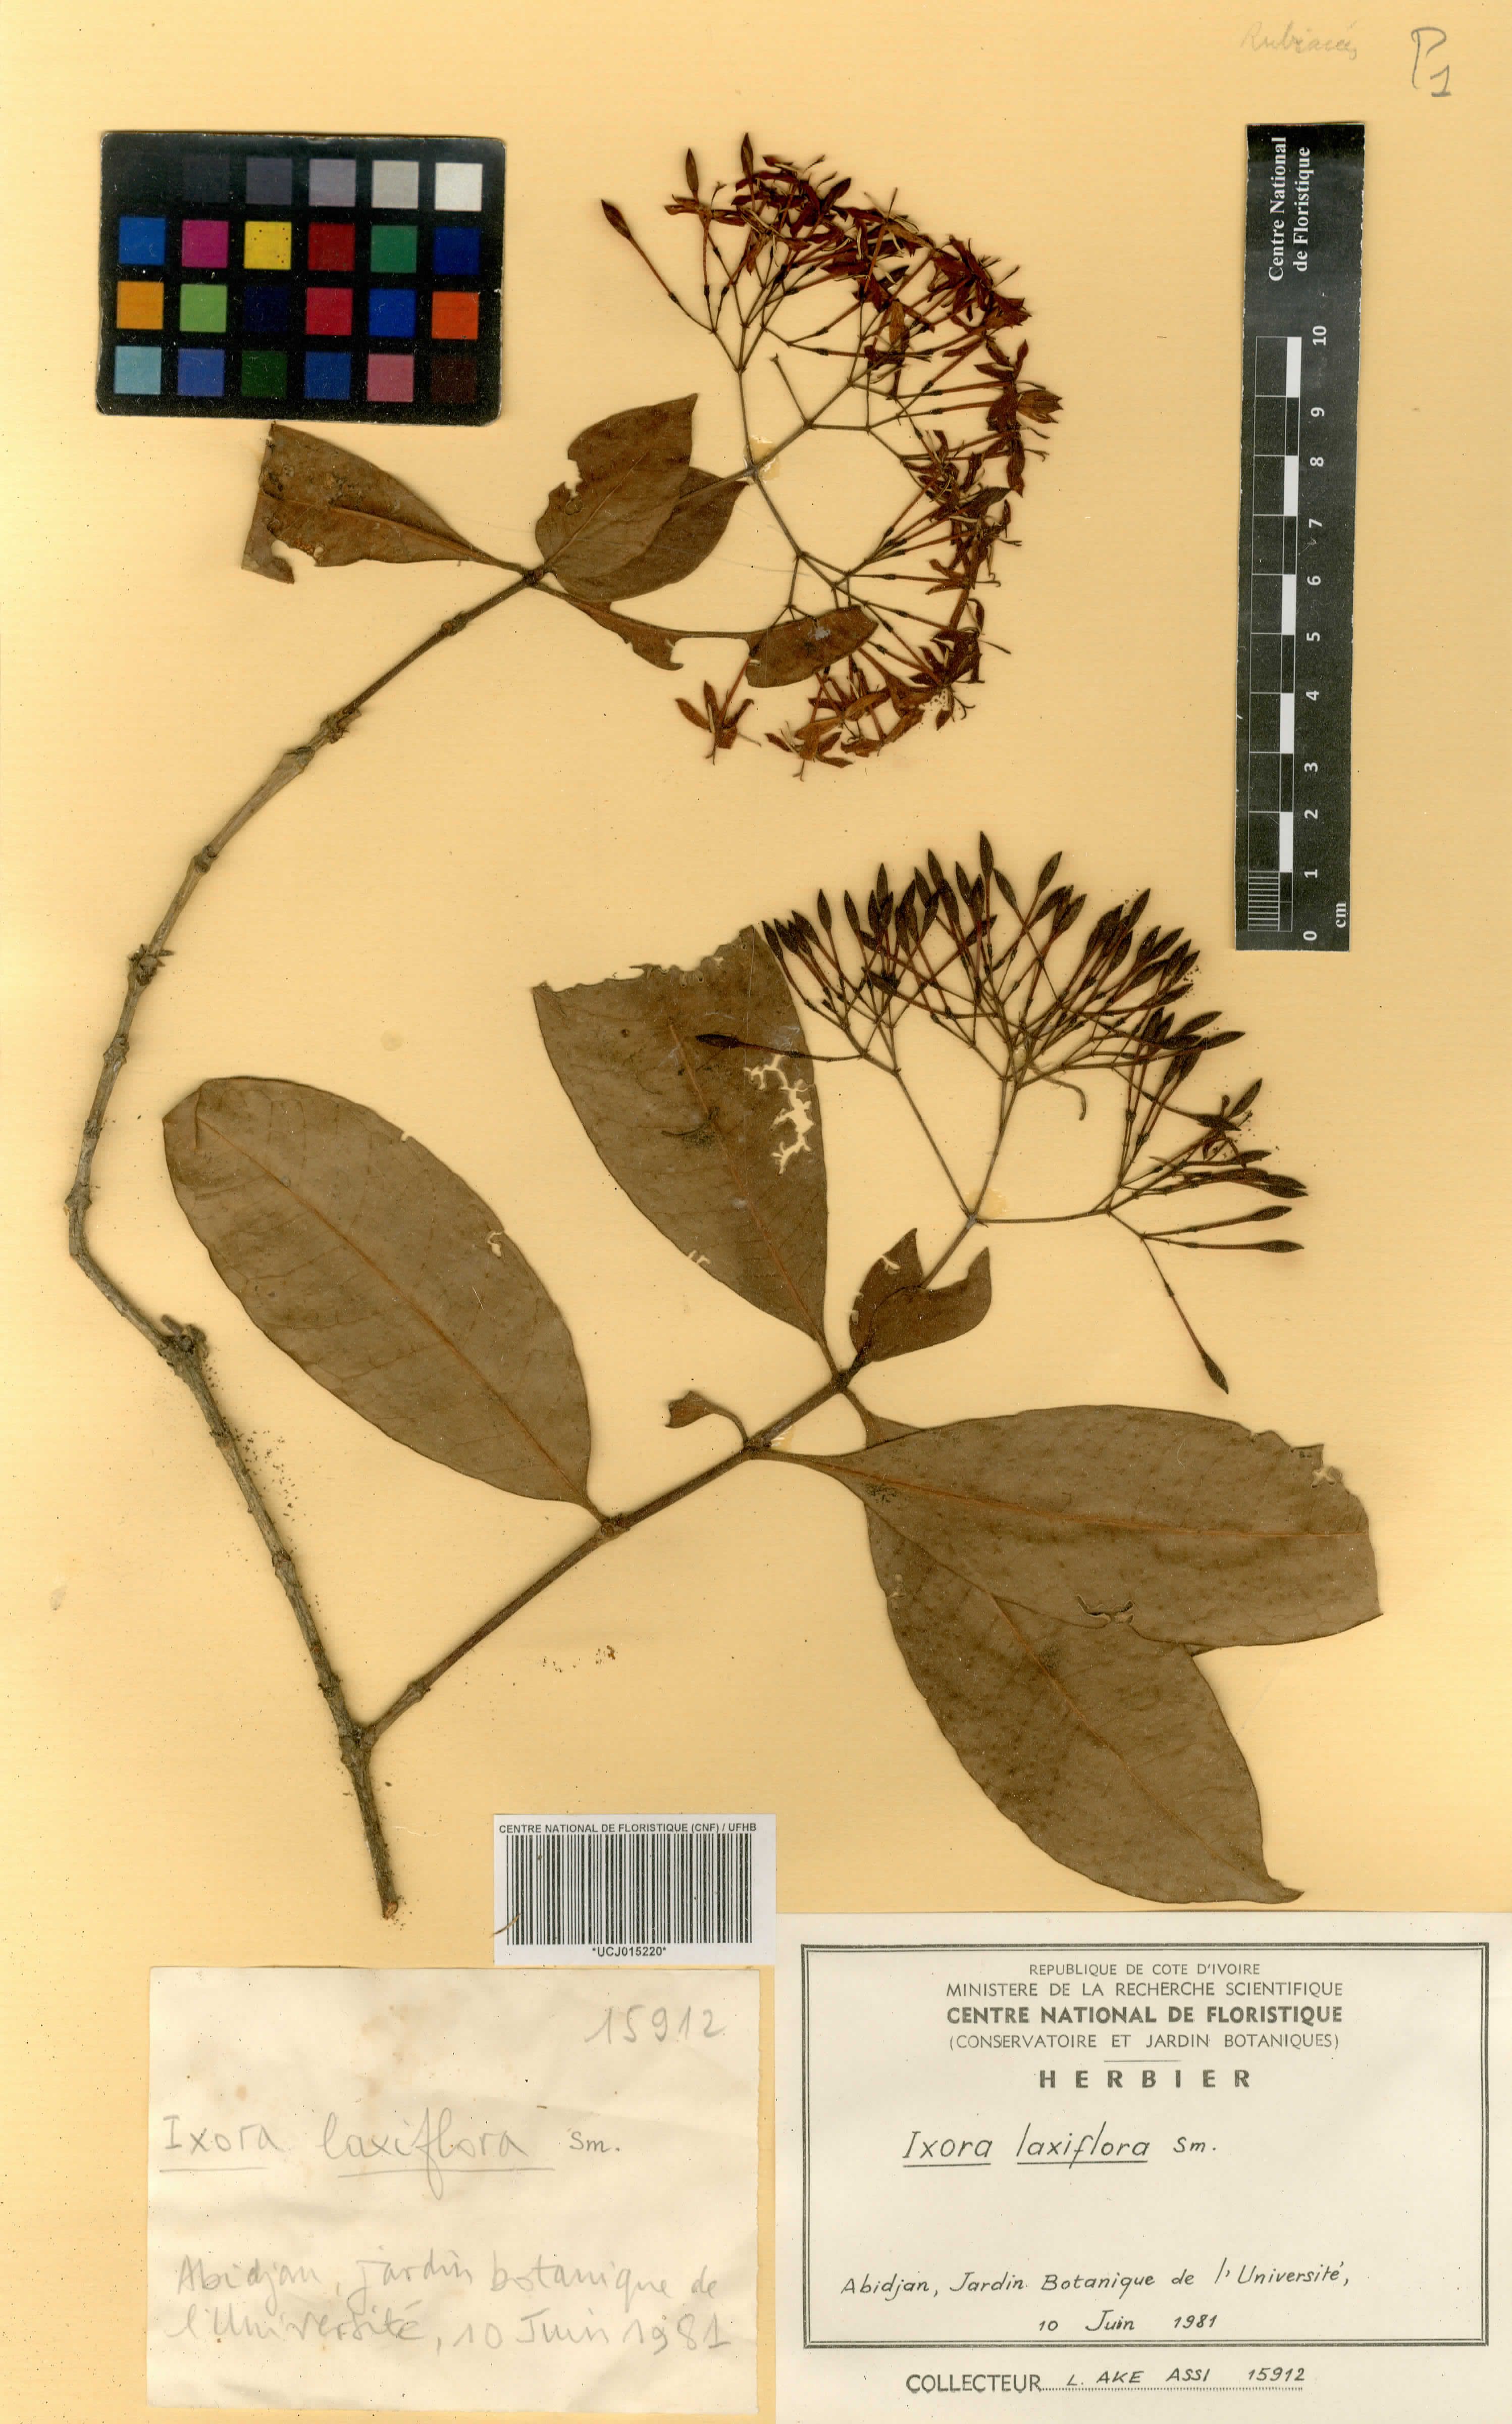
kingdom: Plantae
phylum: Tracheophyta
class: Magnoliopsida
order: Gentianales
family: Rubiaceae
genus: Ixora
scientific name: Ixora laxiflora
